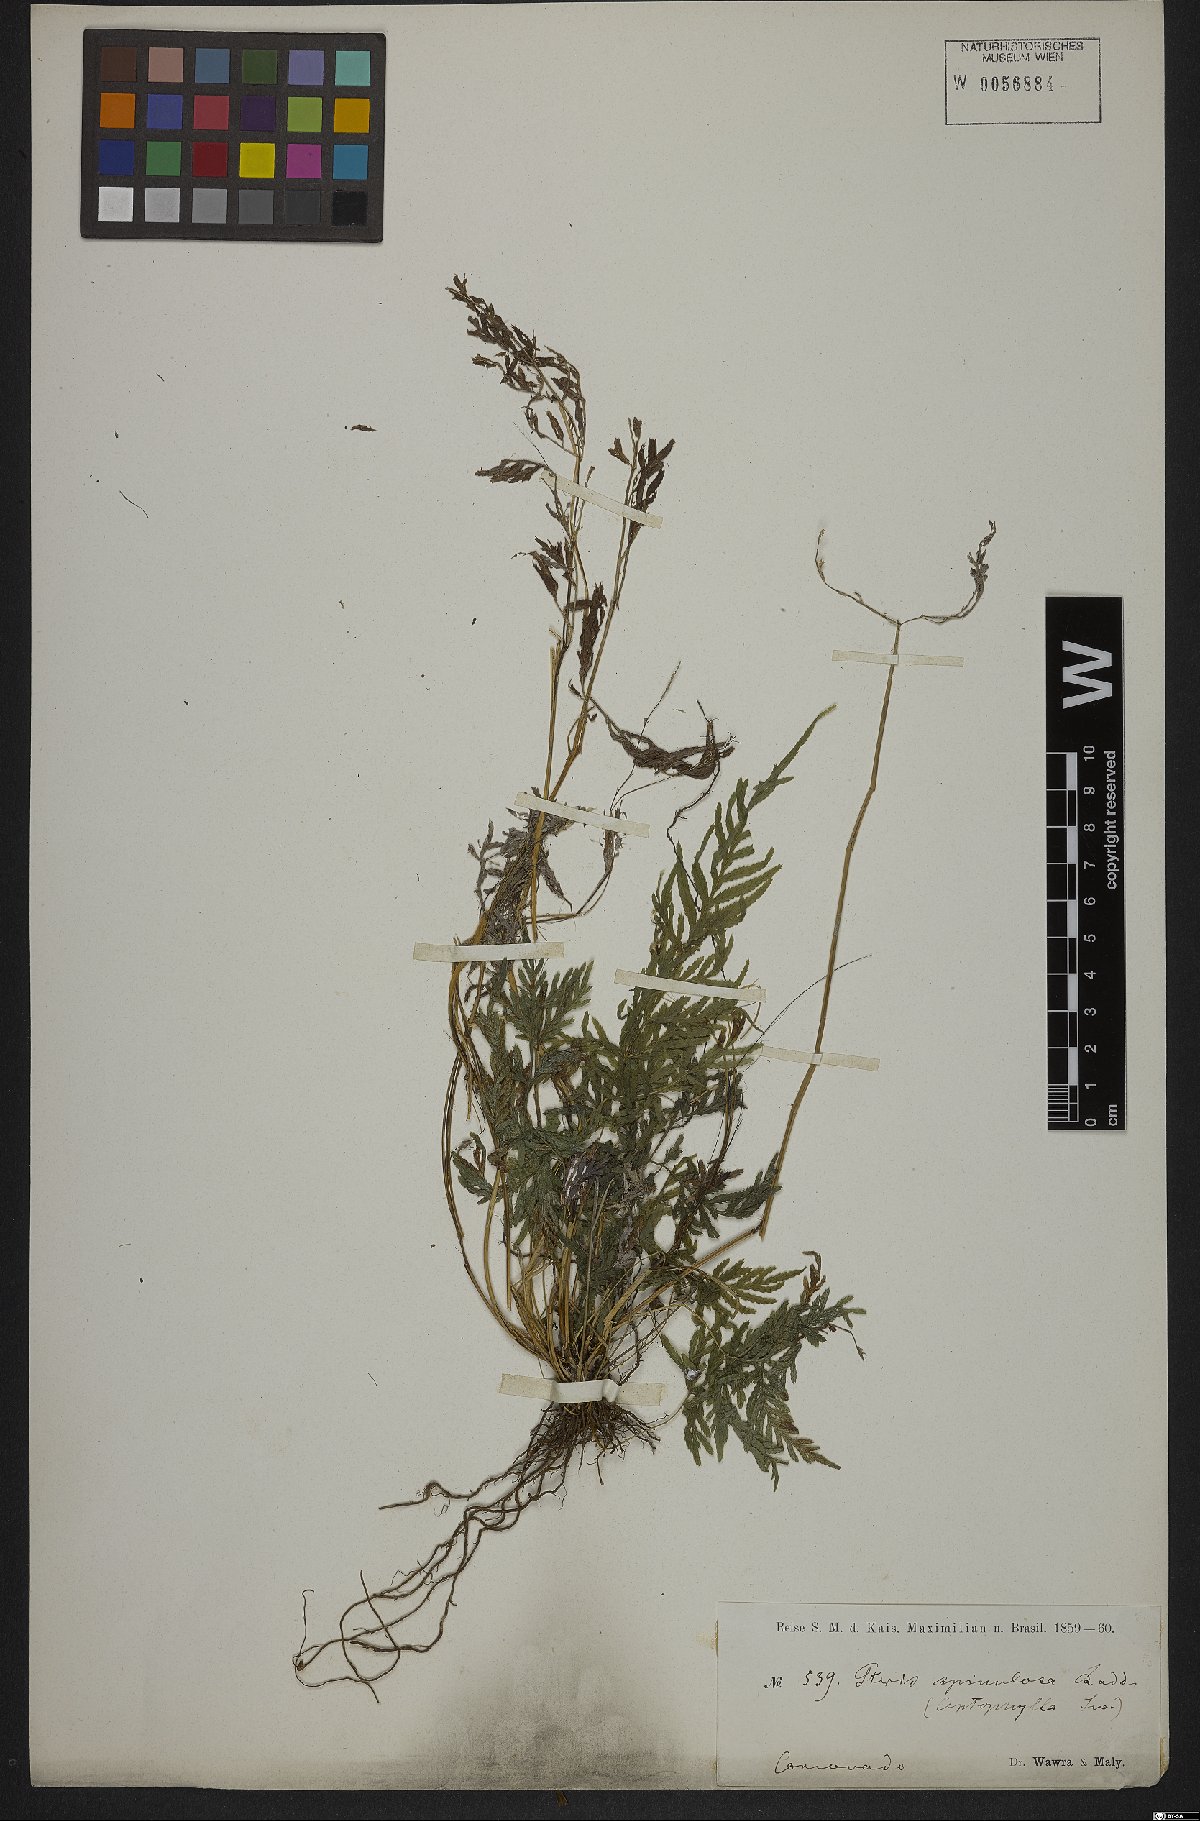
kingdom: Plantae
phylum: Tracheophyta
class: Polypodiopsida
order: Polypodiales
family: Pteridaceae
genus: Pteris
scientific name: Pteris leptophylla
